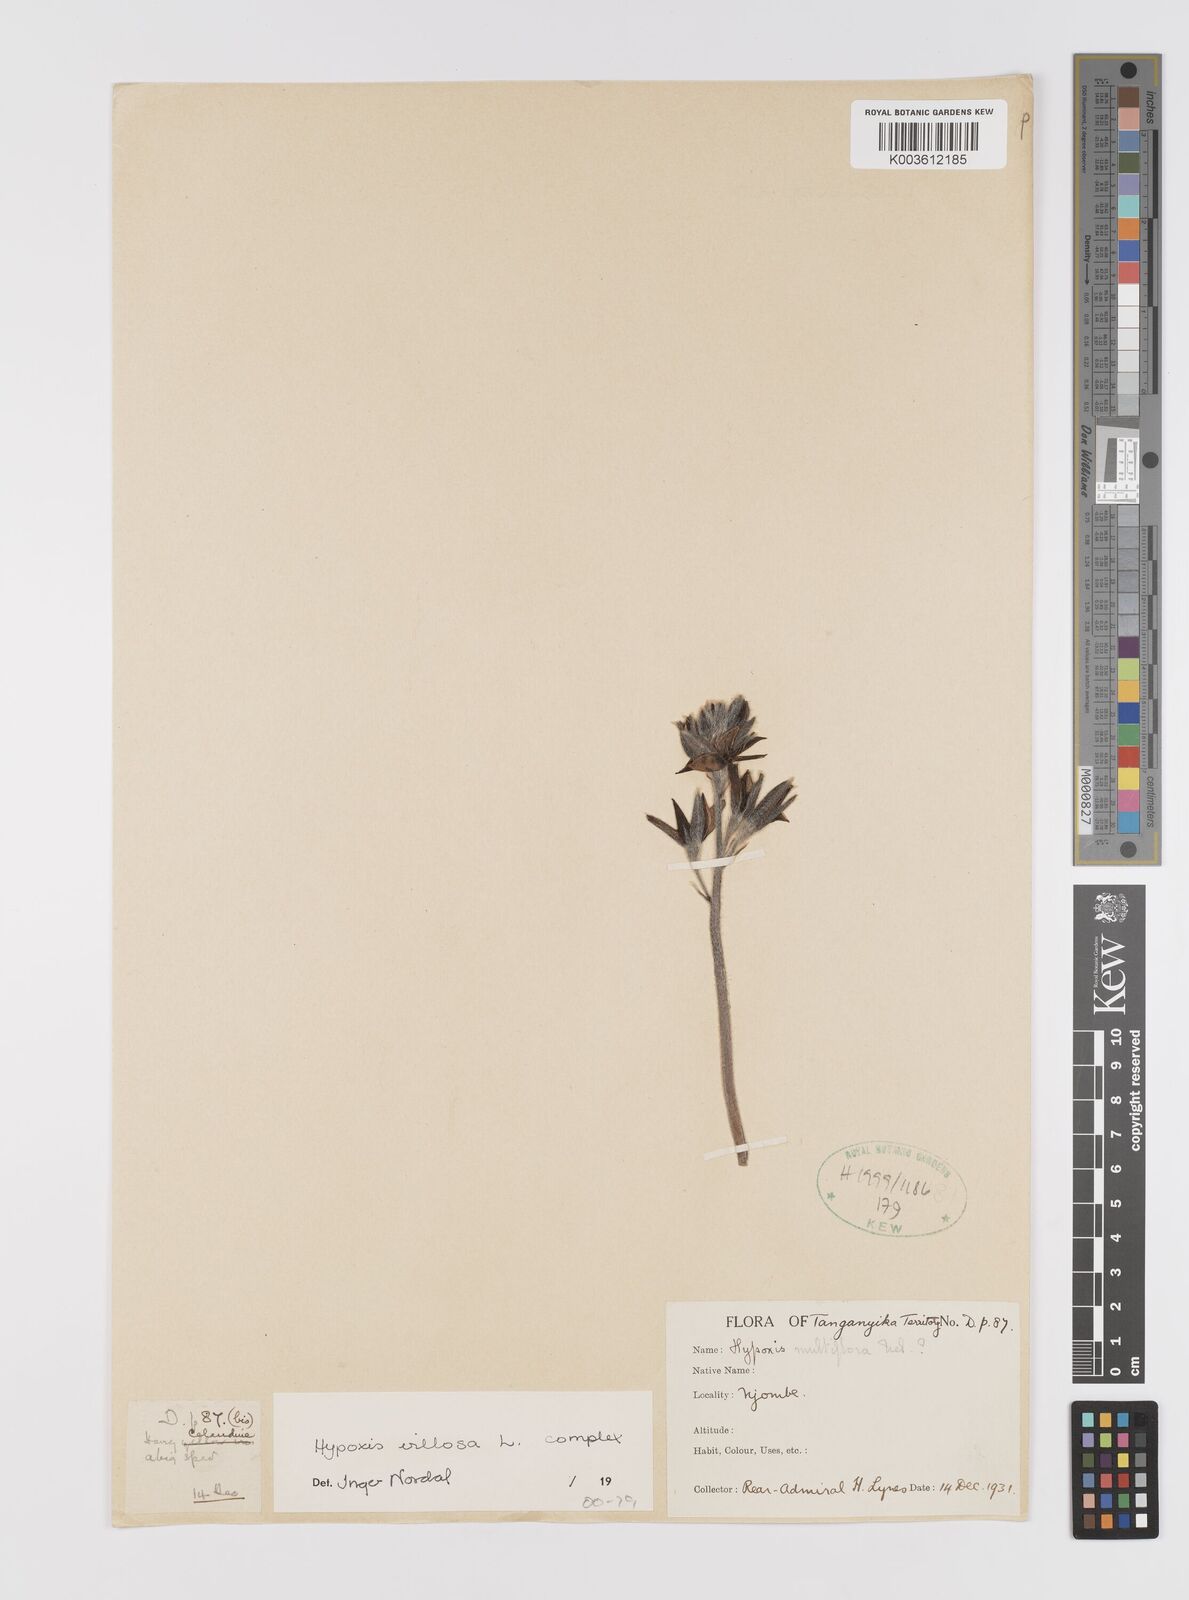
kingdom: Plantae
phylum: Tracheophyta
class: Liliopsida
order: Asparagales
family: Hypoxidaceae
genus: Hypoxis
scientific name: Hypoxis
